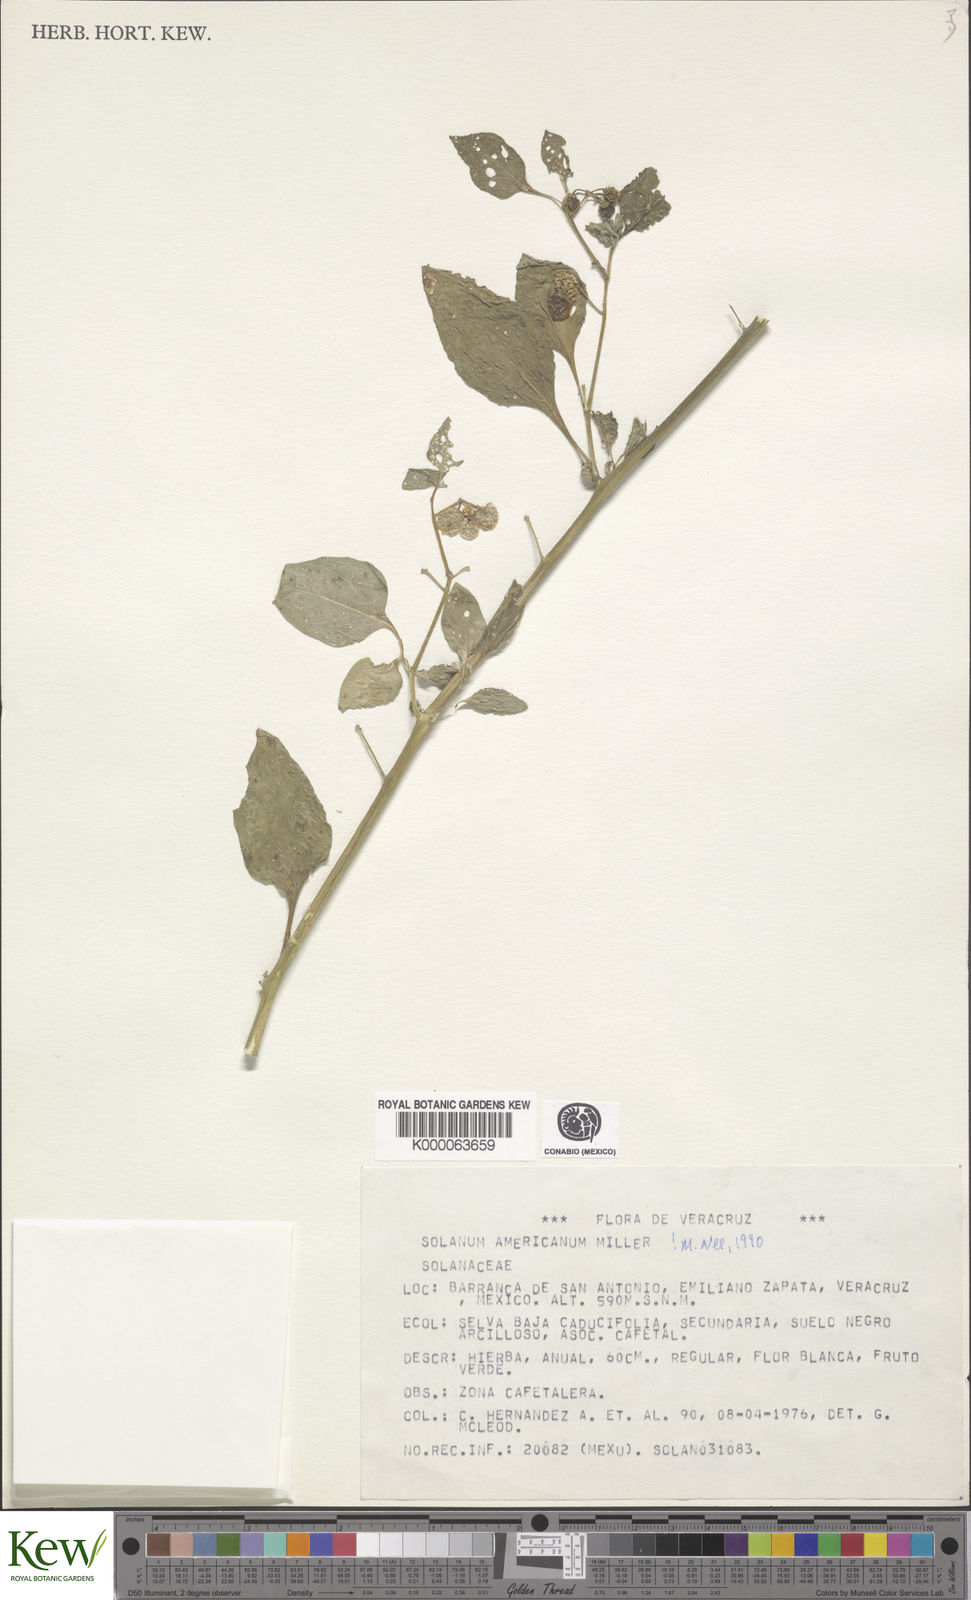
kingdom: Plantae
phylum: Tracheophyta
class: Magnoliopsida
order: Solanales
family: Solanaceae
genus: Solanum
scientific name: Solanum americanum
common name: American black nightshade
